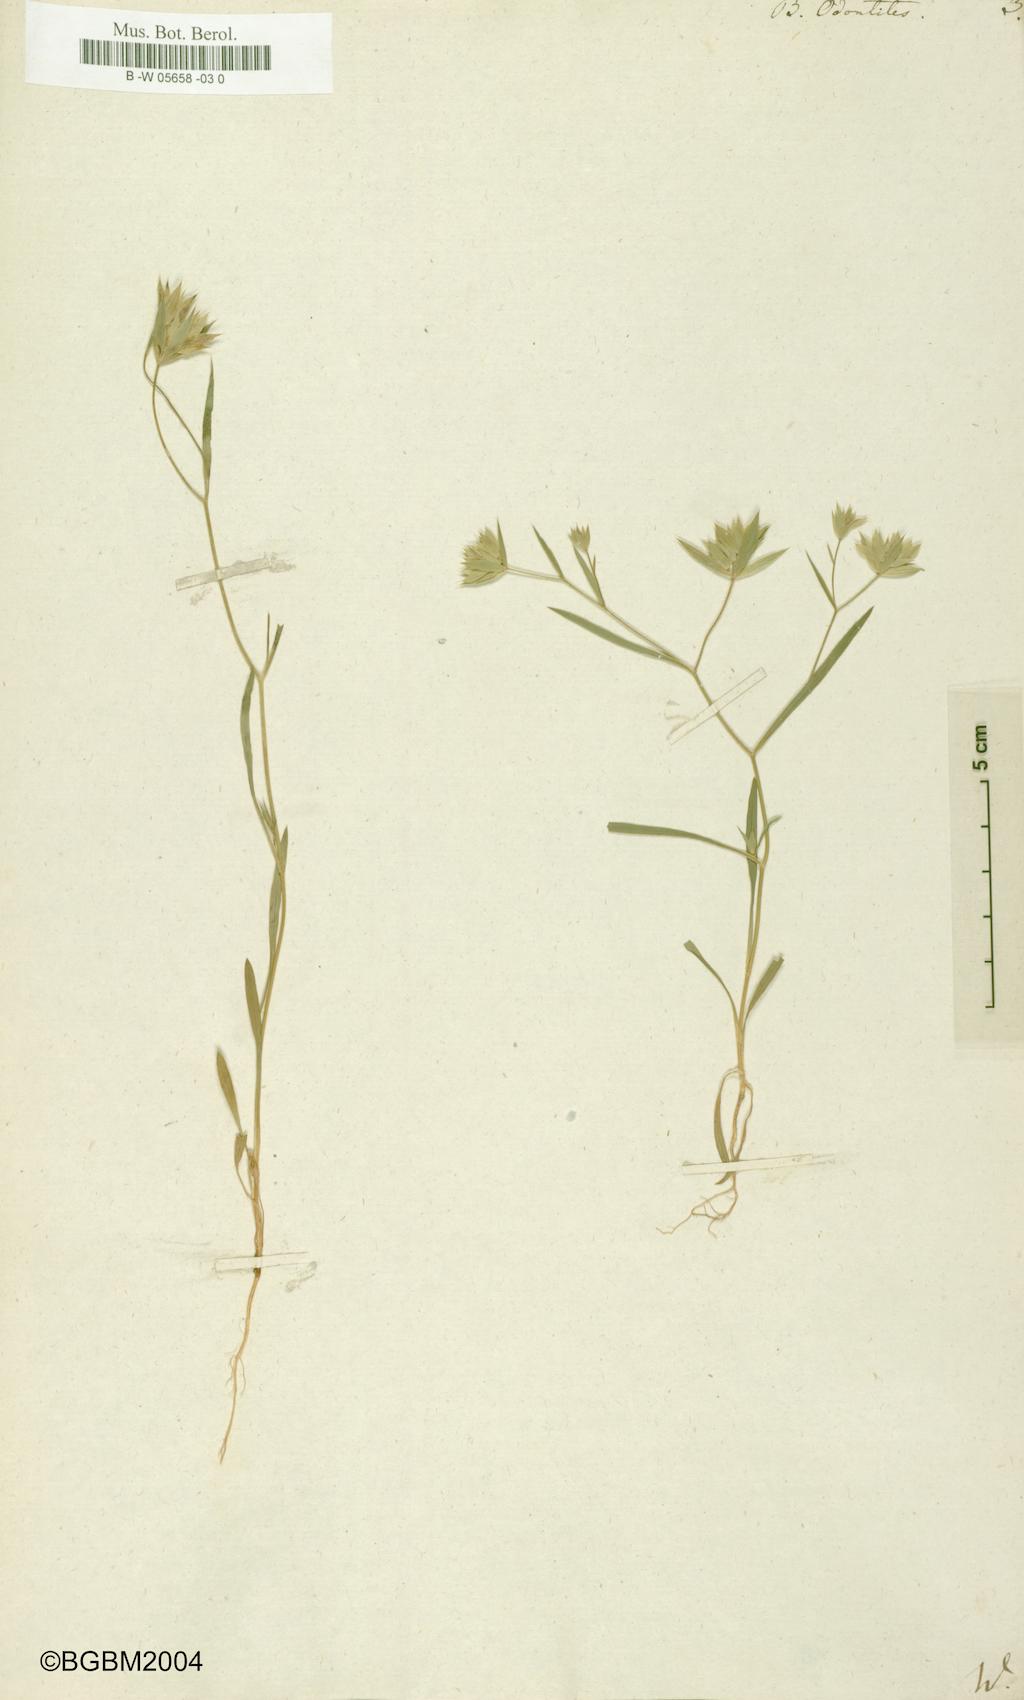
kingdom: Plantae
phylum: Tracheophyta
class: Magnoliopsida
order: Apiales
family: Apiaceae
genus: Bupleurum
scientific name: Bupleurum odontites
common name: Narrowleaf thorow wax
